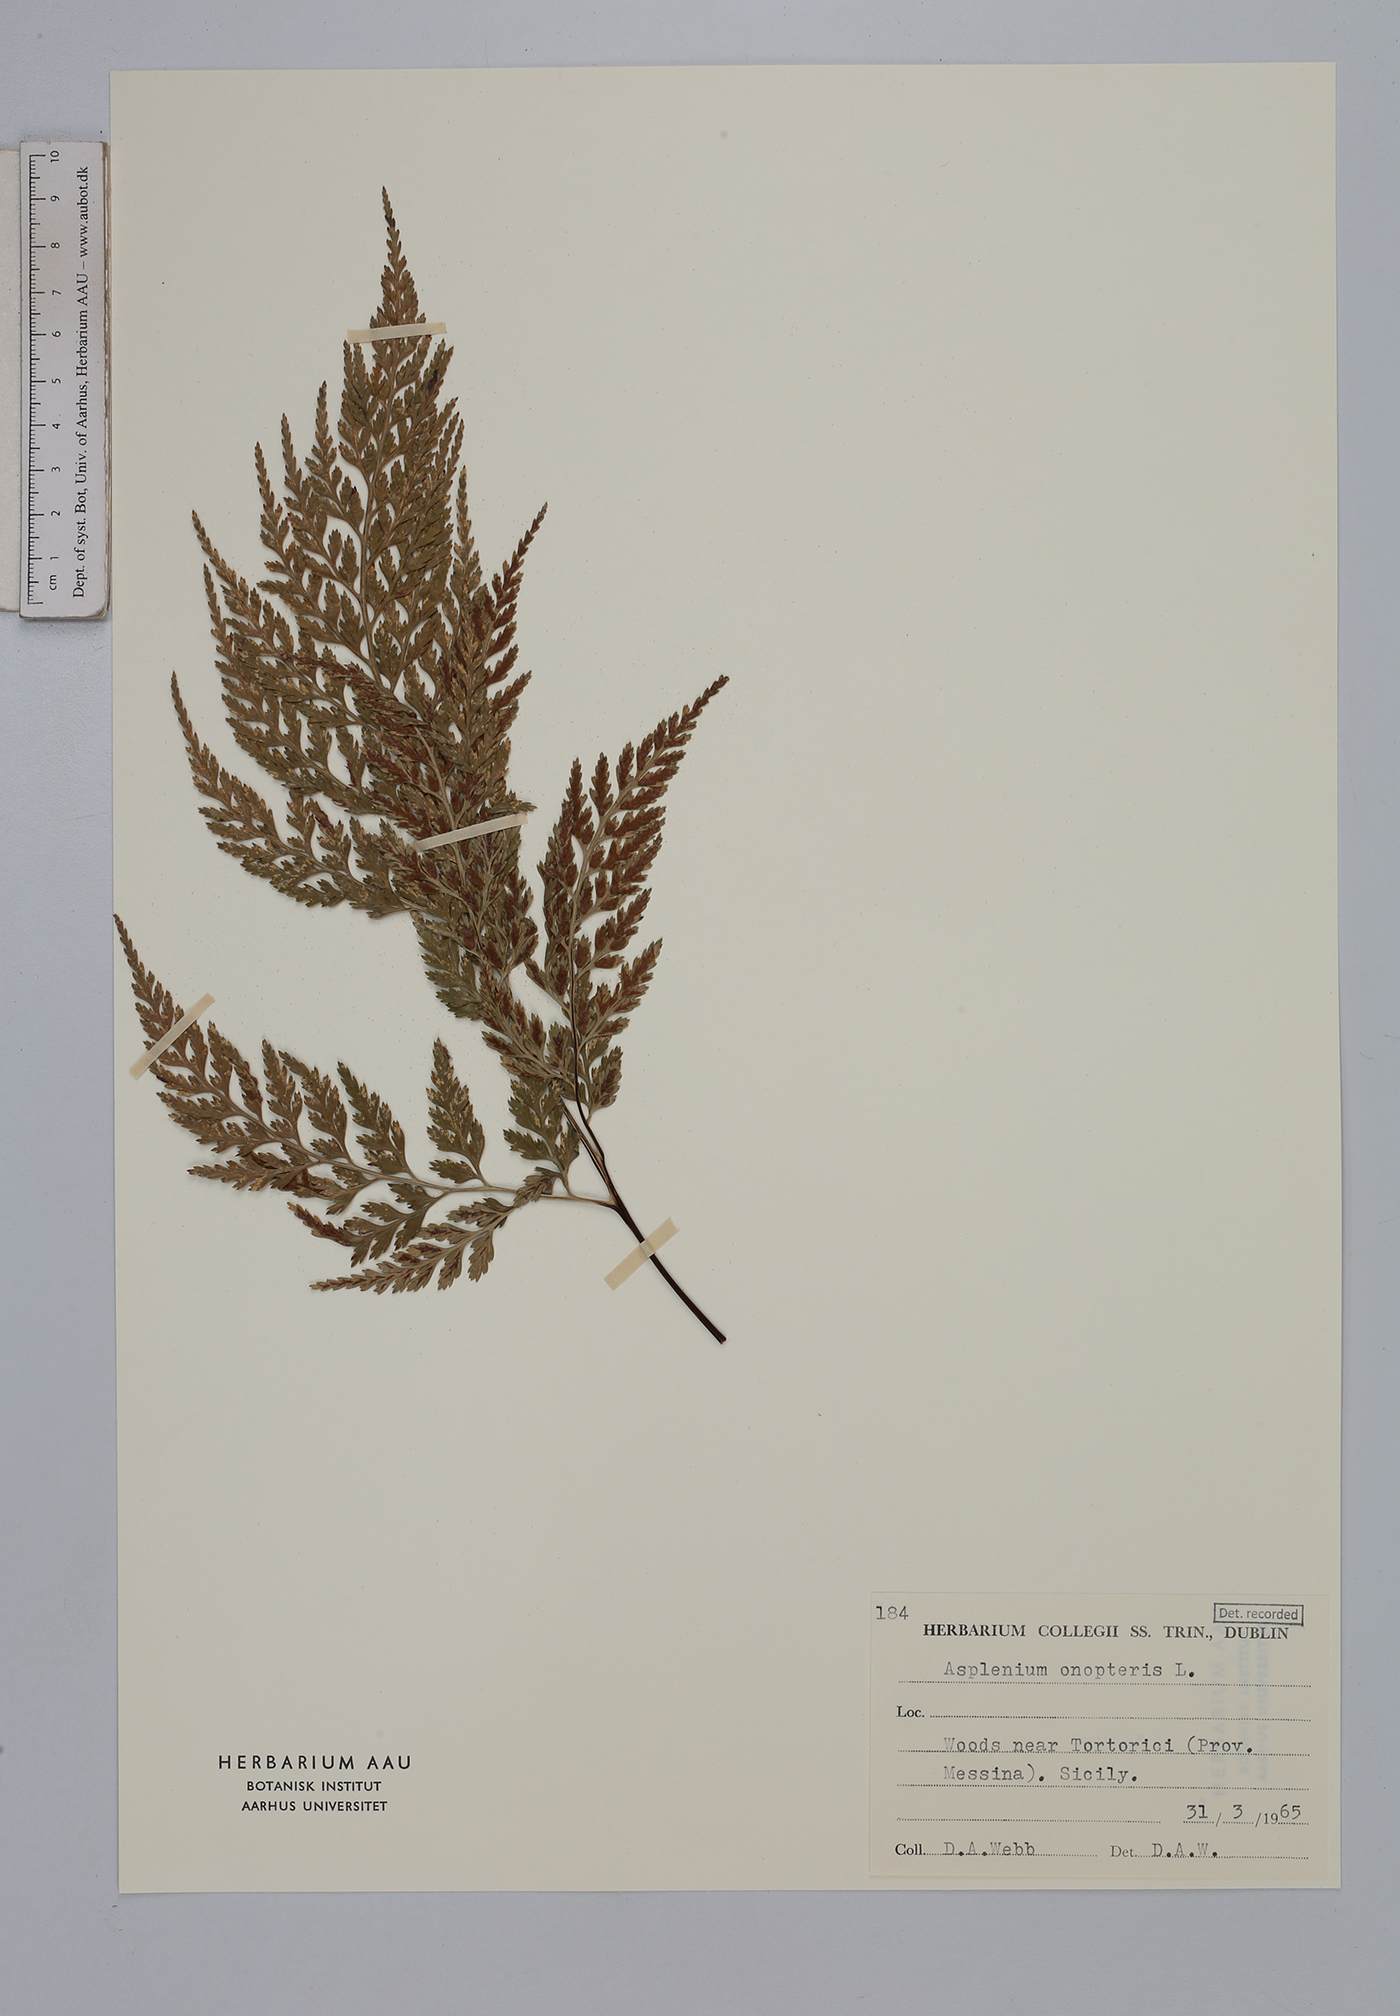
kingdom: Plantae
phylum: Tracheophyta
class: Polypodiopsida
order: Polypodiales
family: Aspleniaceae
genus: Asplenium
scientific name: Asplenium onopteris
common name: Irish spleenwort
